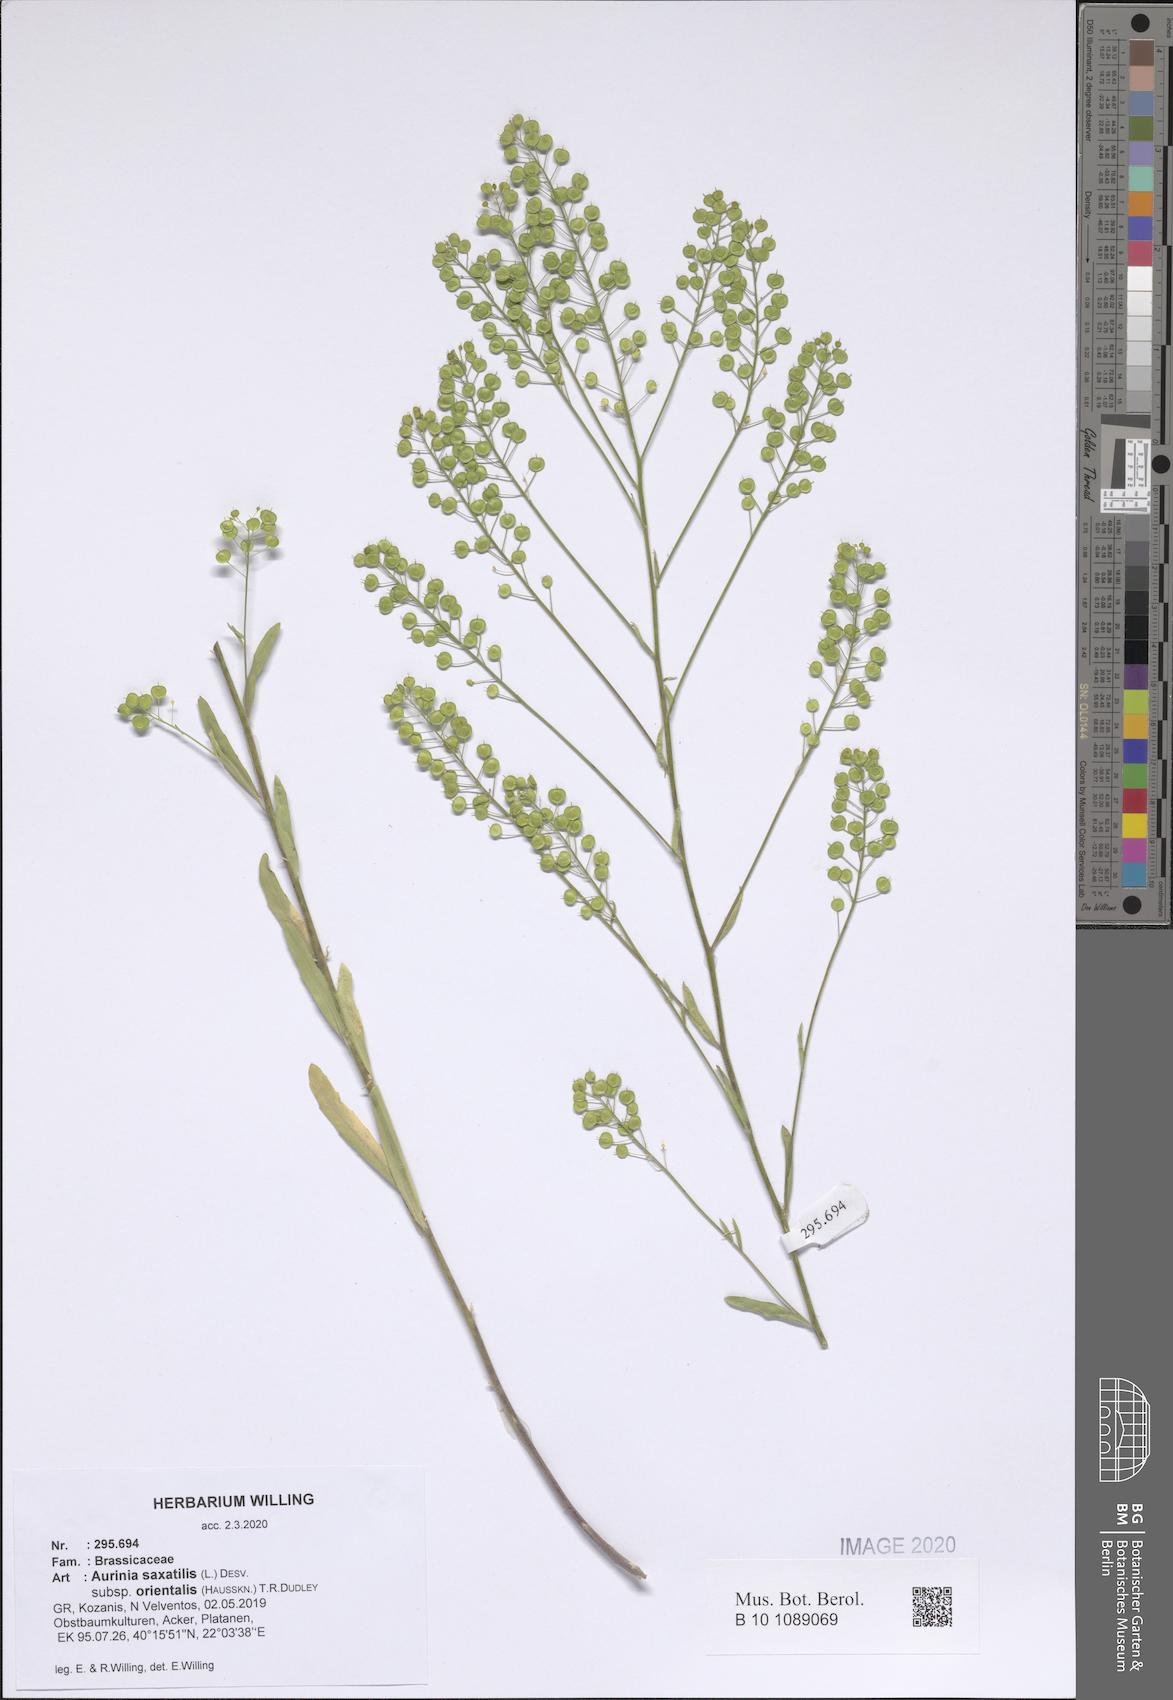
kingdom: Plantae
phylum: Tracheophyta
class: Magnoliopsida
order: Brassicales
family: Brassicaceae
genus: Aurinia
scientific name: Aurinia saxatilis
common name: Golden-tuft alyssum
